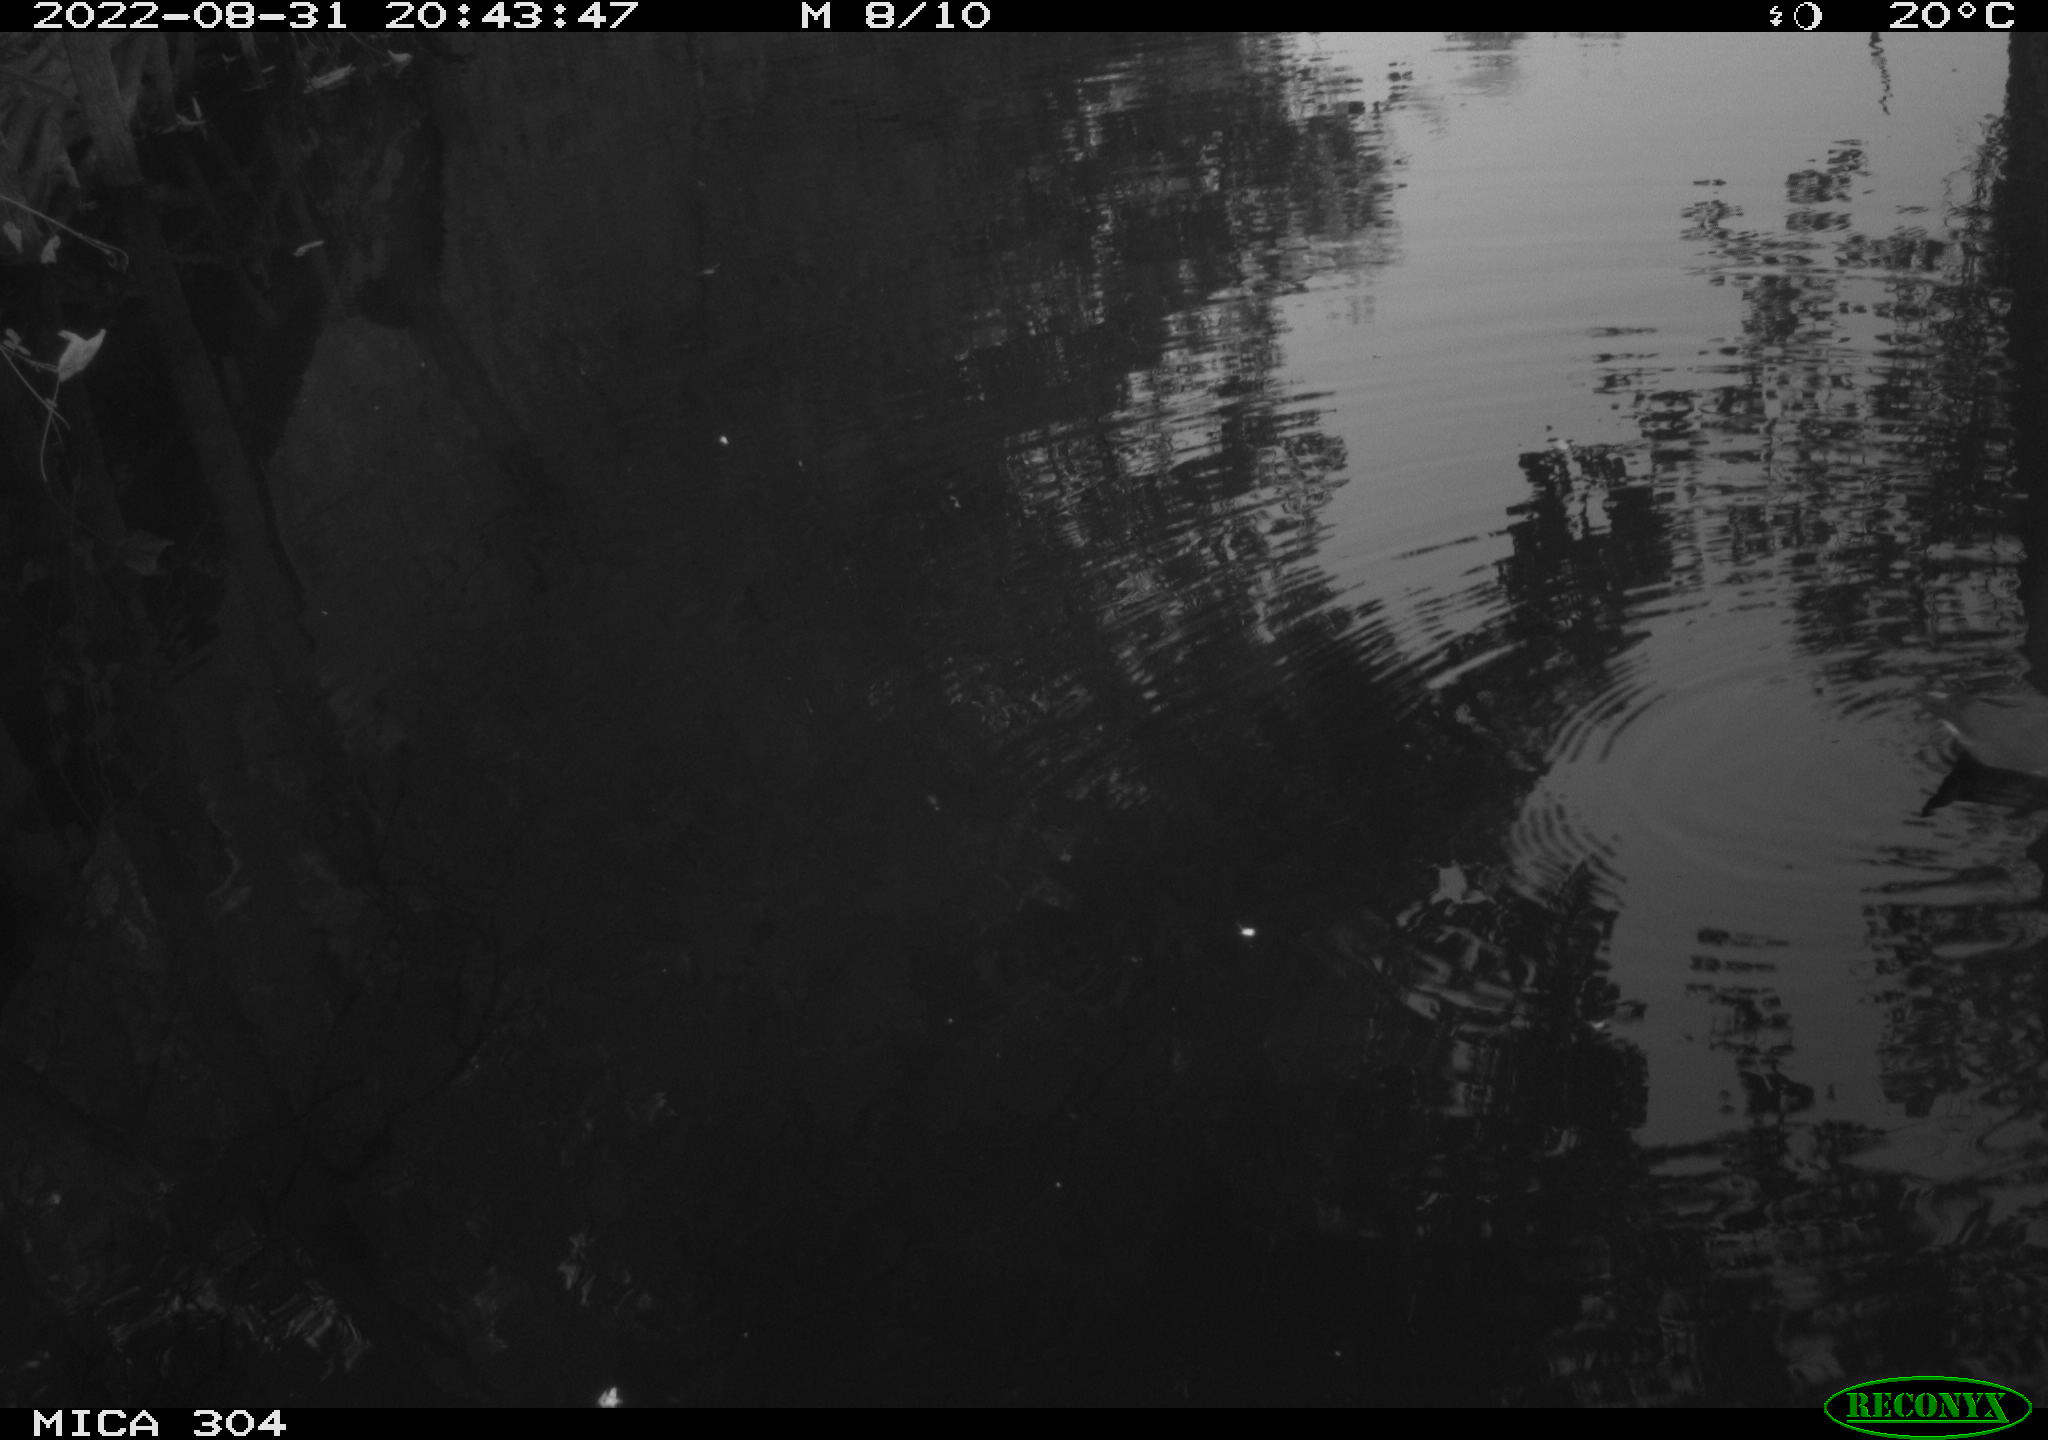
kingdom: Animalia
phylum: Chordata
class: Aves
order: Gruiformes
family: Rallidae
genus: Gallinula
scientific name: Gallinula chloropus
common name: Common moorhen
